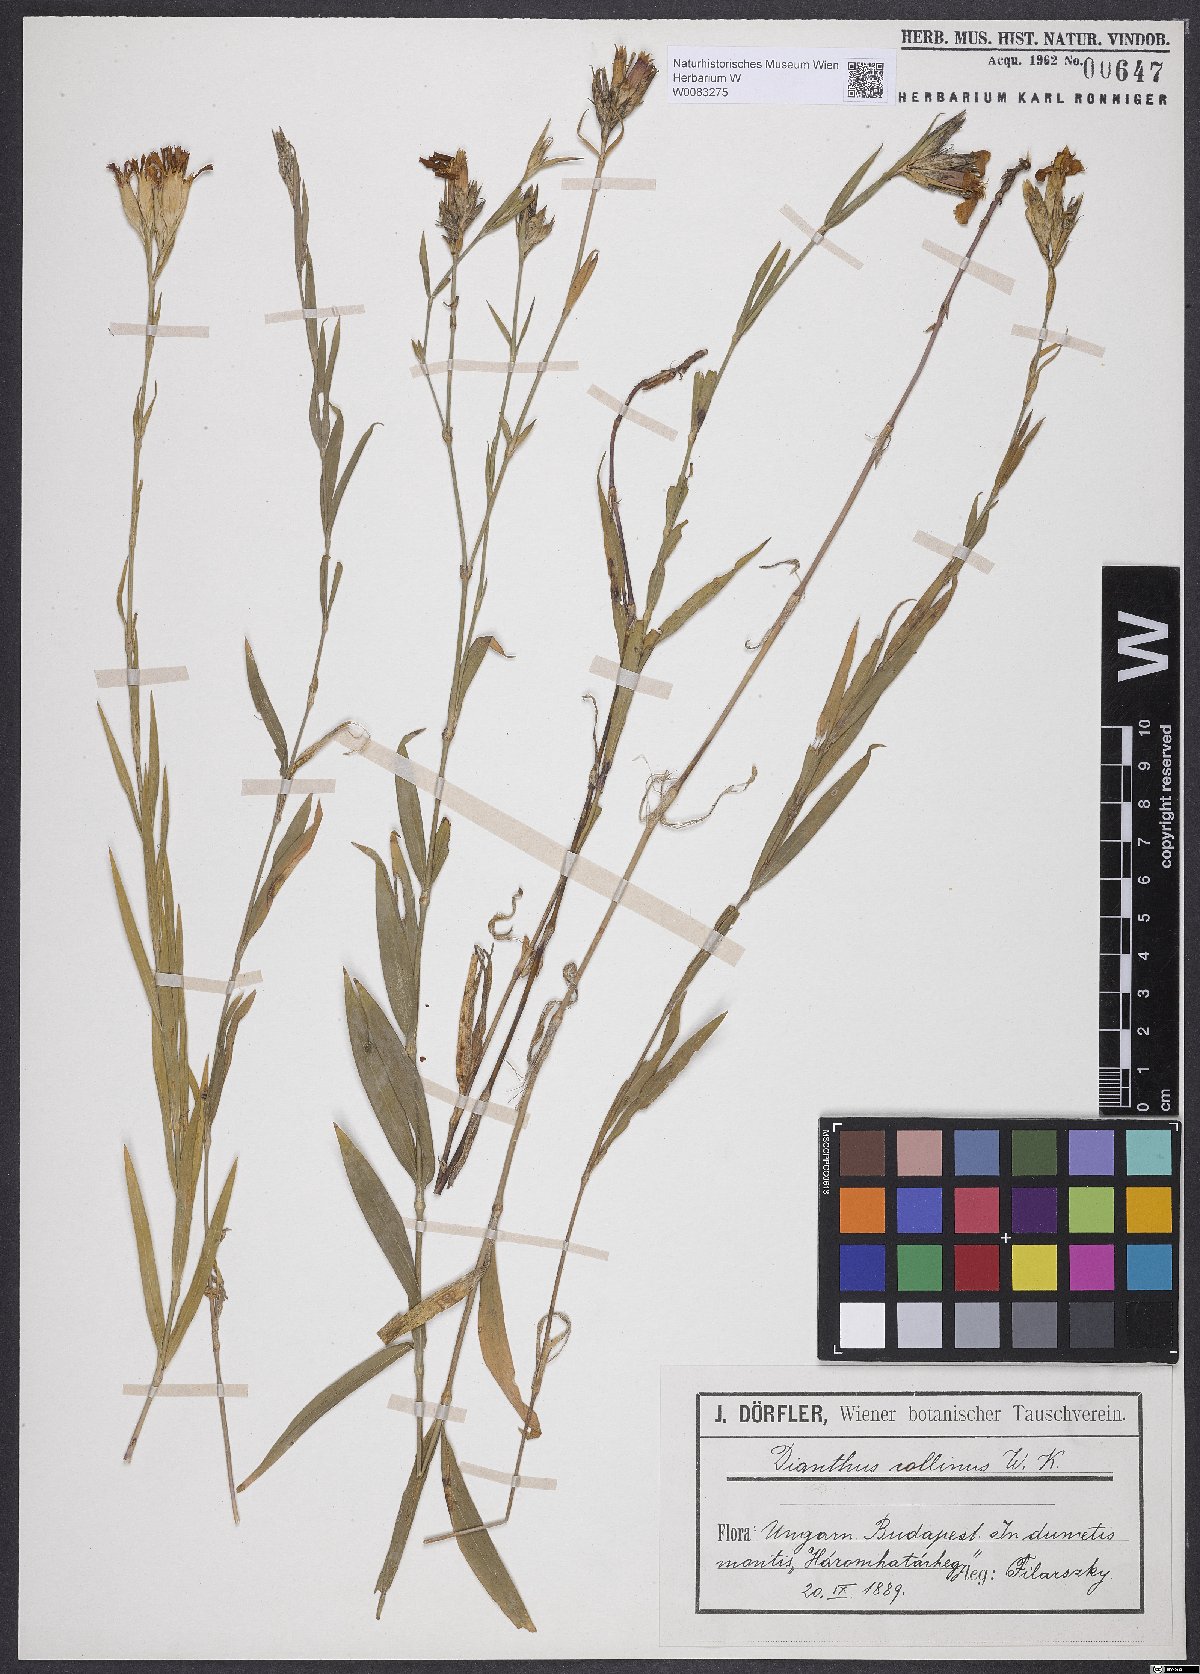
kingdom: Plantae
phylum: Tracheophyta
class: Magnoliopsida
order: Caryophyllales
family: Caryophyllaceae
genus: Dianthus
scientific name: Dianthus collinus
